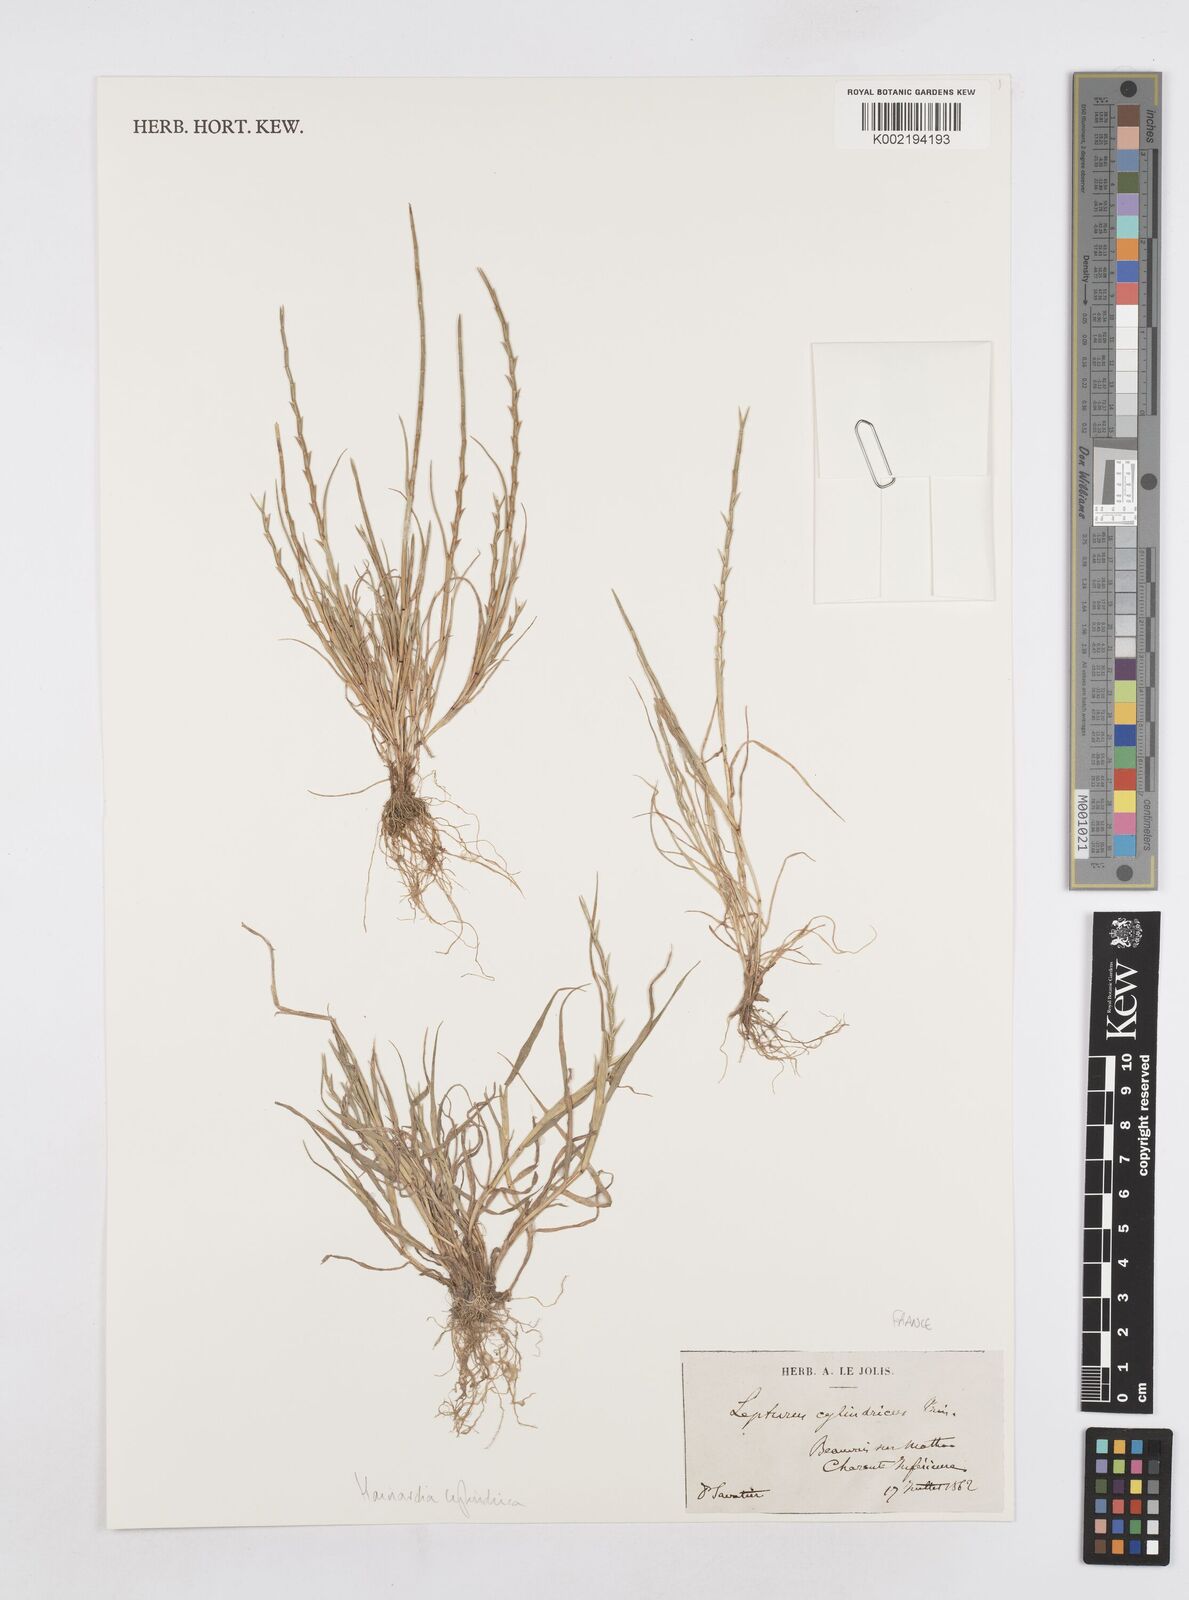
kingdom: Plantae
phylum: Tracheophyta
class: Liliopsida
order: Poales
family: Poaceae
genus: Parapholis
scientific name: Parapholis cylindrica
